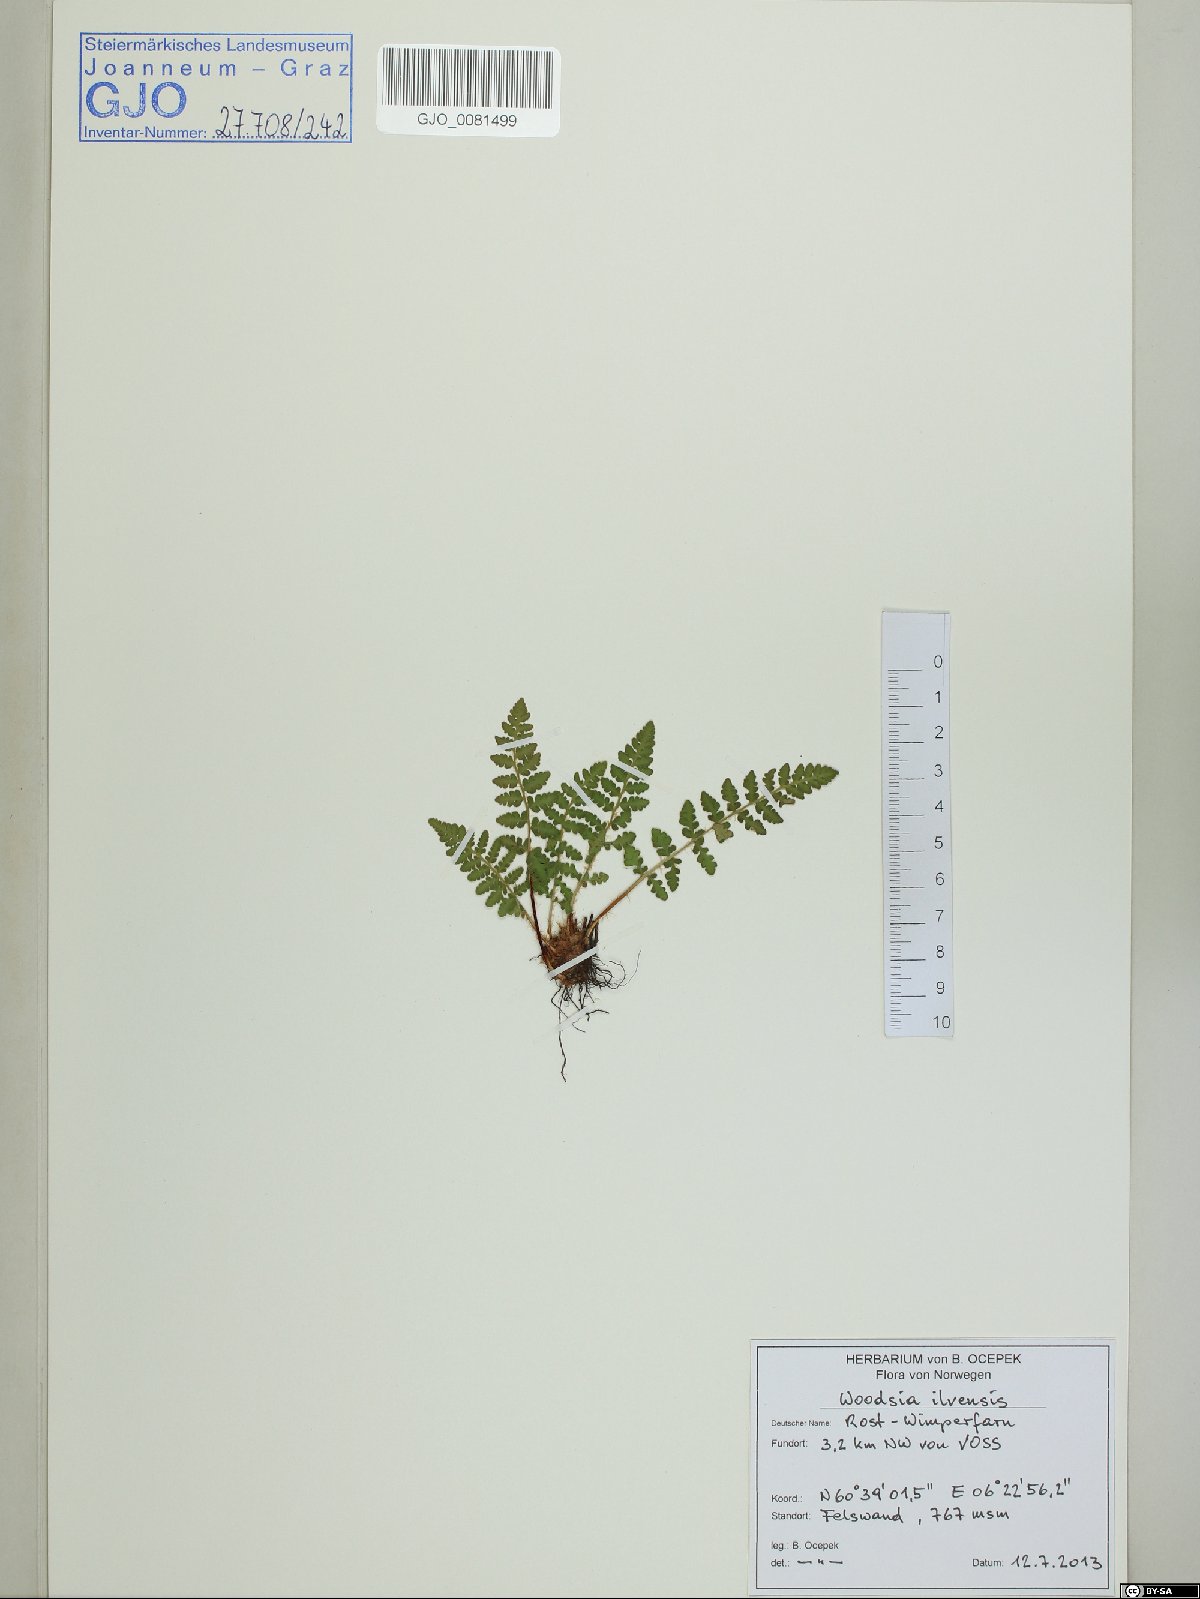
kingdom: Plantae
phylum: Tracheophyta
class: Polypodiopsida
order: Polypodiales
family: Woodsiaceae
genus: Woodsia
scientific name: Woodsia ilvensis
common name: Fragrant woodsia
